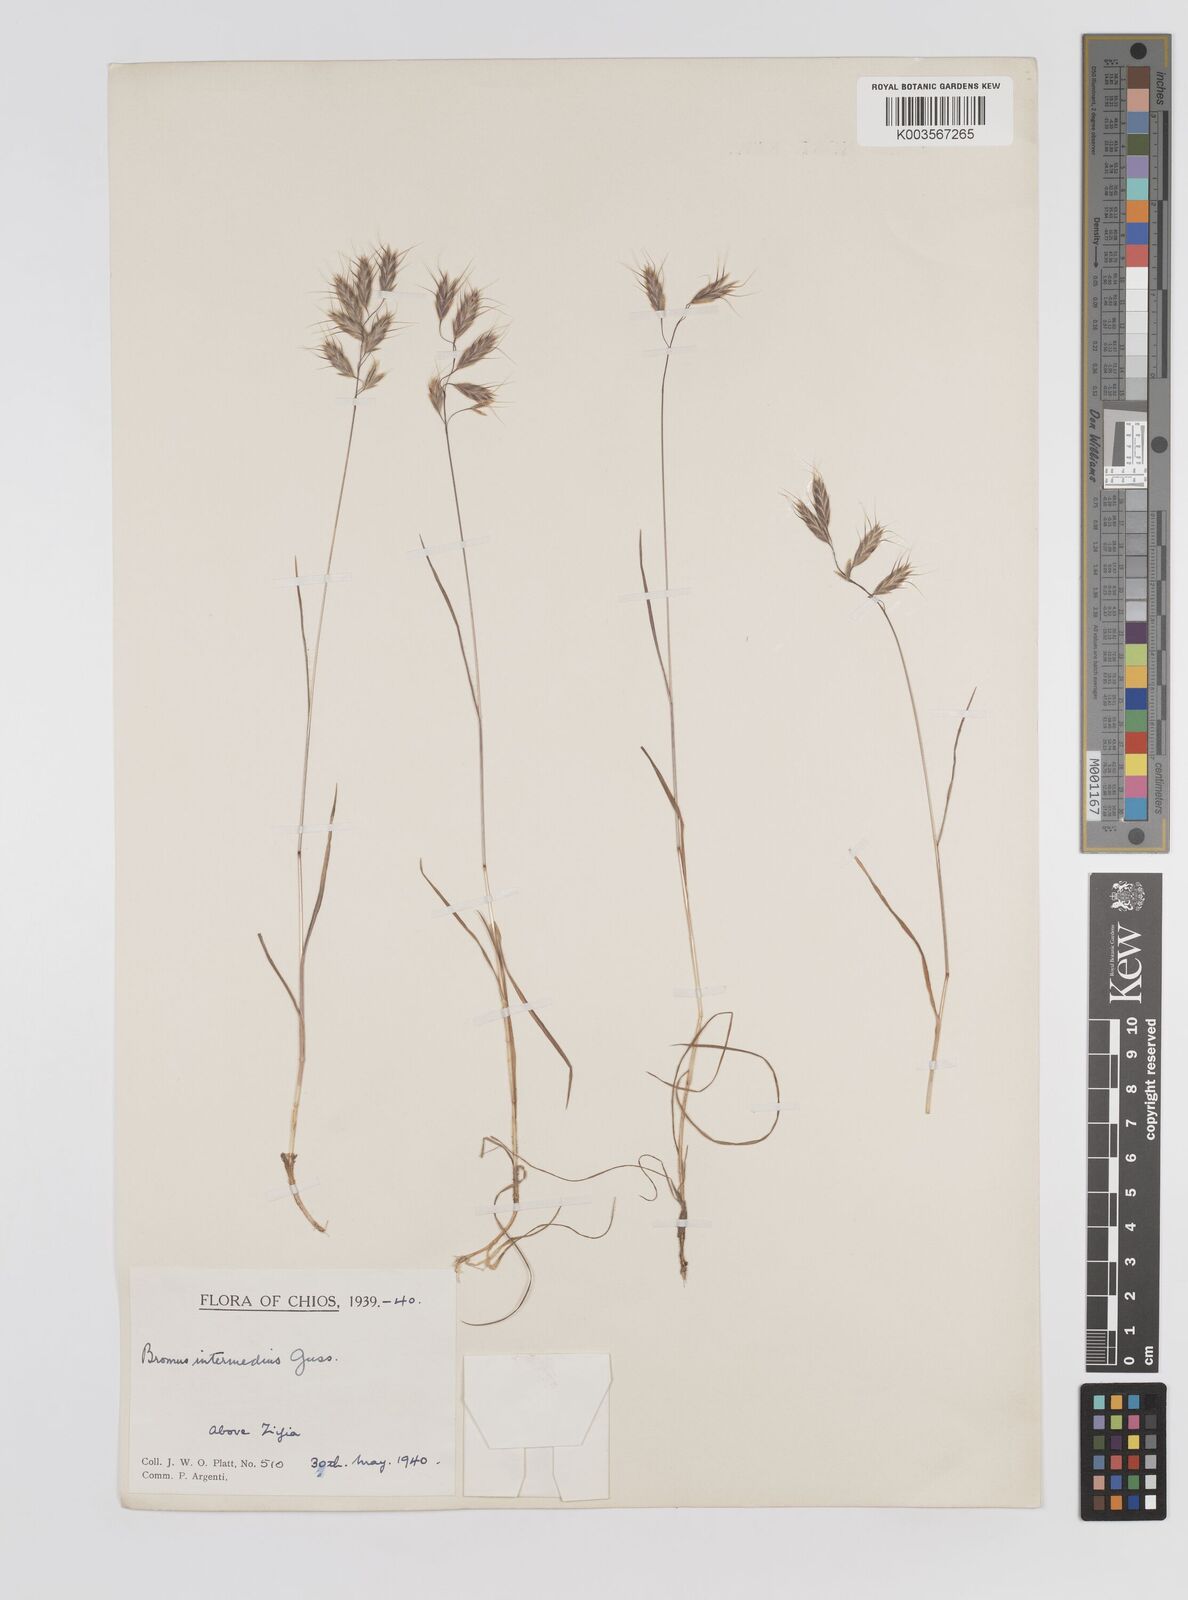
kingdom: Plantae
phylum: Tracheophyta
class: Liliopsida
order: Poales
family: Poaceae
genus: Bromus
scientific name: Bromus intermedius
